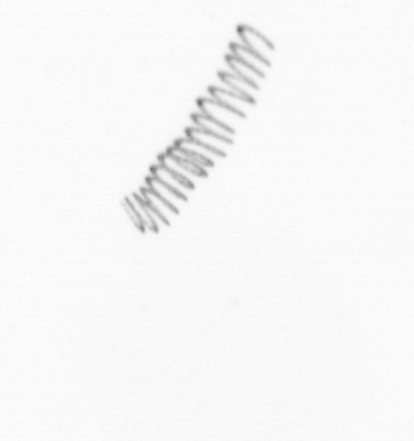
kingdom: Chromista
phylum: Ochrophyta
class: Bacillariophyceae
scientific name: Bacillariophyceae
